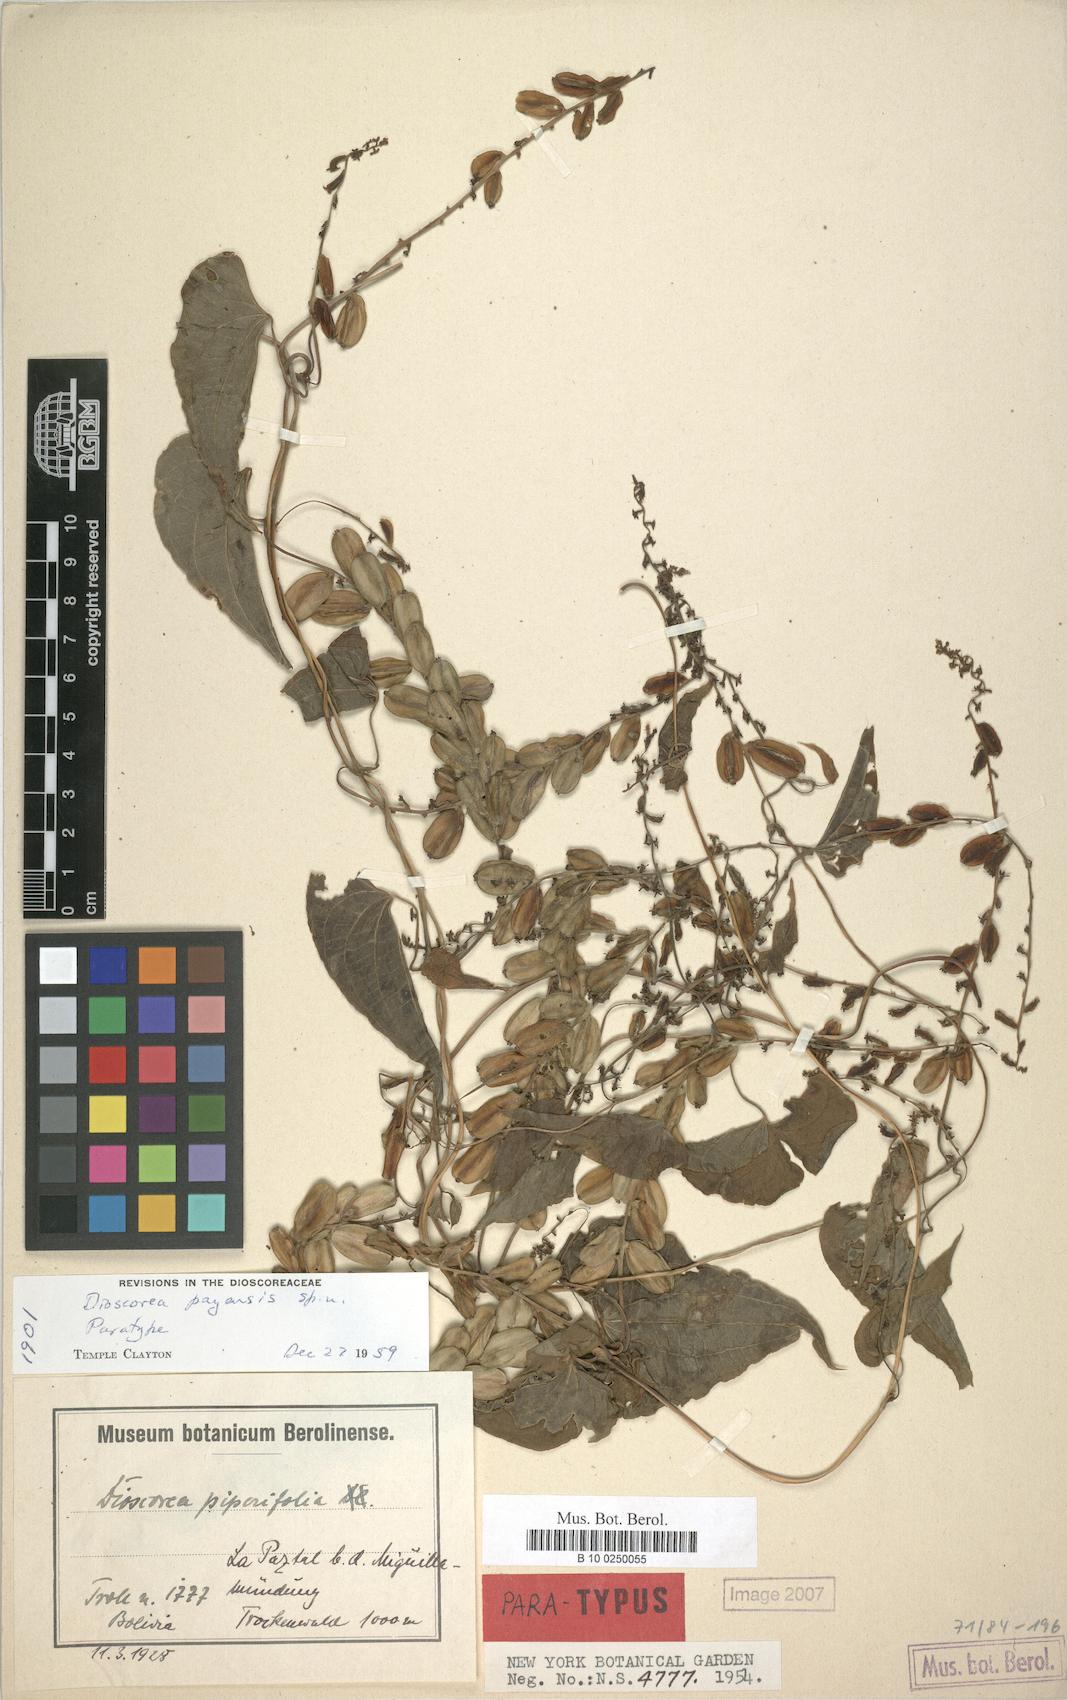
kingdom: Plantae
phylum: Tracheophyta
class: Liliopsida
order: Dioscoreales
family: Dioscoreaceae
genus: Dioscorea
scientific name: Dioscorea
